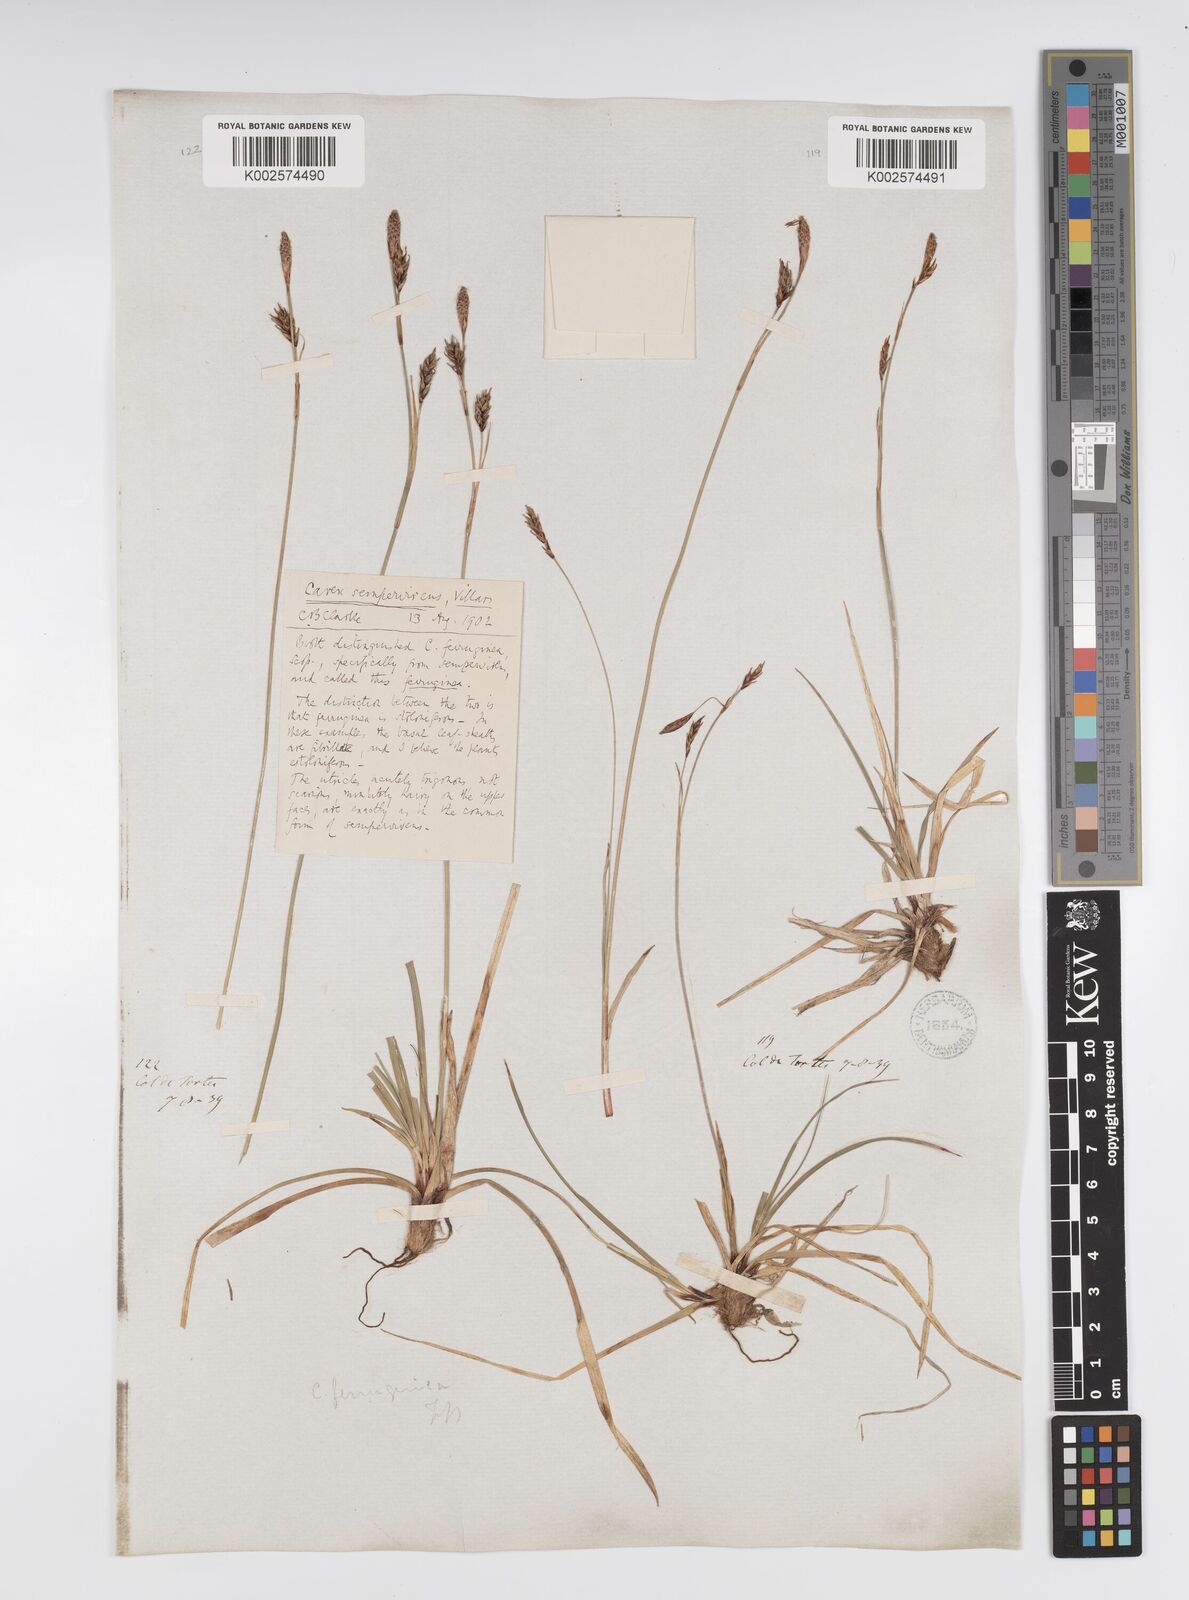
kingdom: Plantae
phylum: Tracheophyta
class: Liliopsida
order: Poales
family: Cyperaceae
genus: Carex
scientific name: Carex sempervirens
